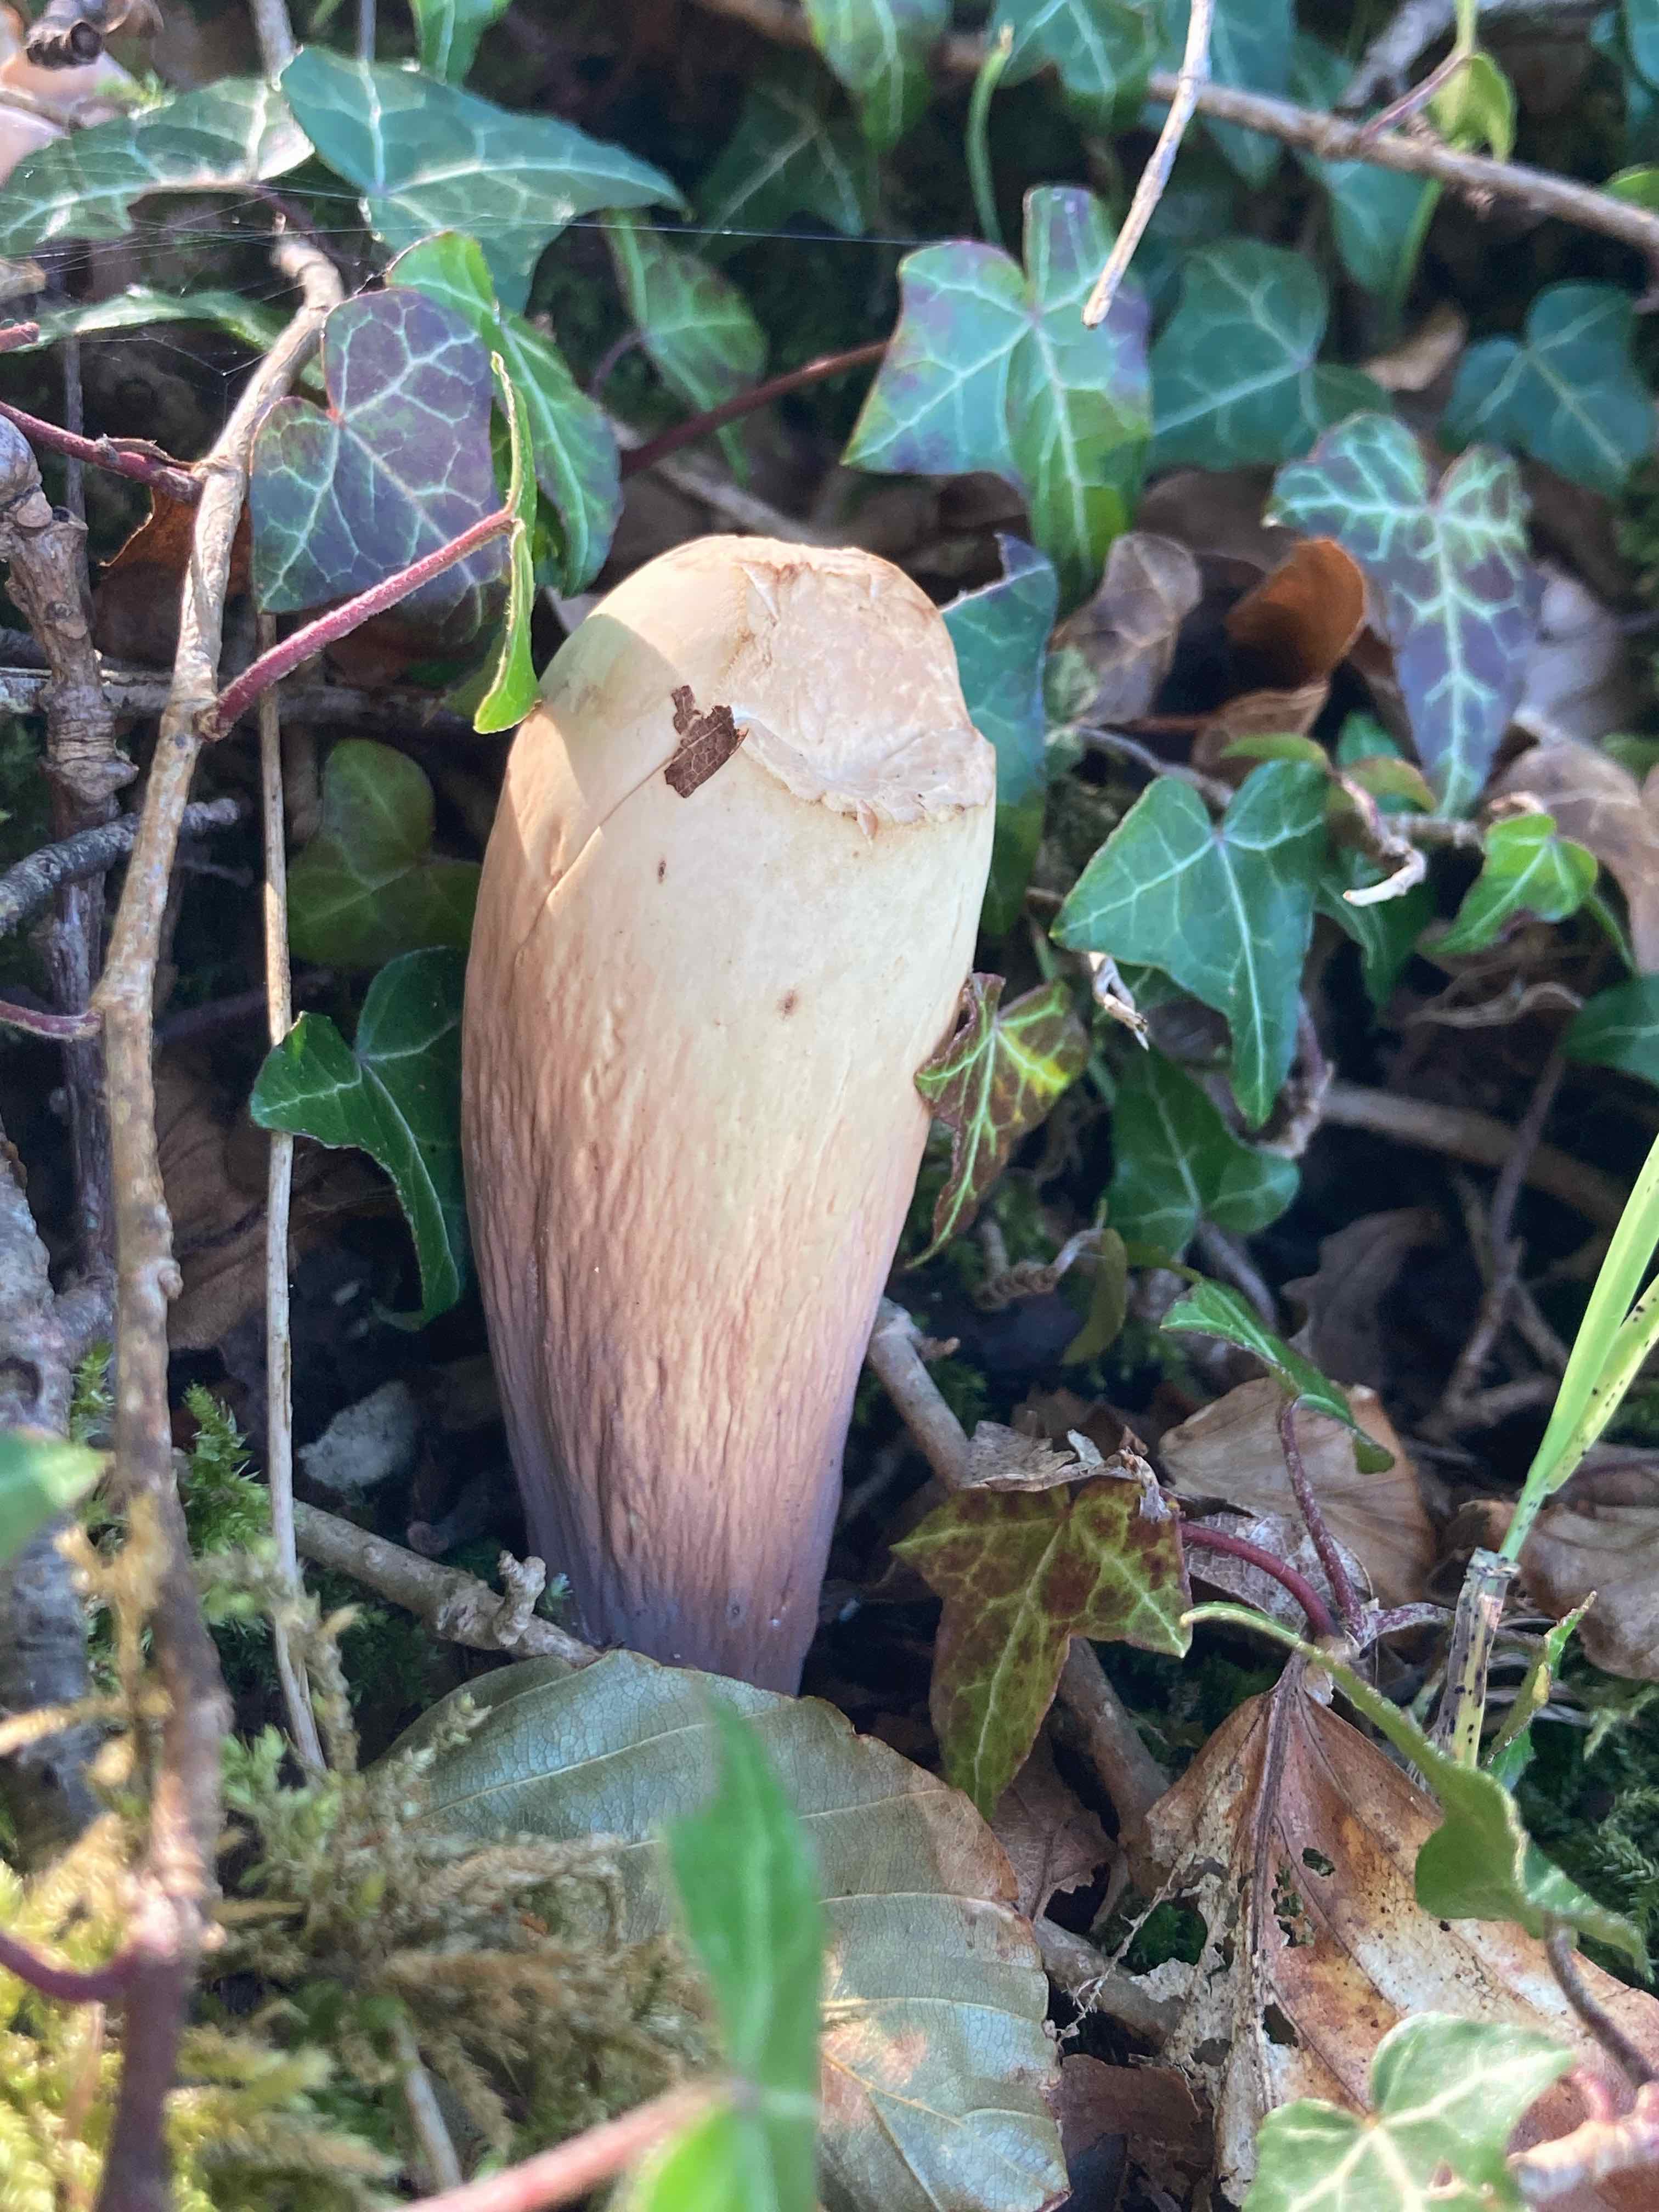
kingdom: Fungi
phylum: Basidiomycota
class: Agaricomycetes
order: Gomphales
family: Clavariadelphaceae
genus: Clavariadelphus
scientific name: Clavariadelphus pistillaris
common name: herkules-kæmpekølle
